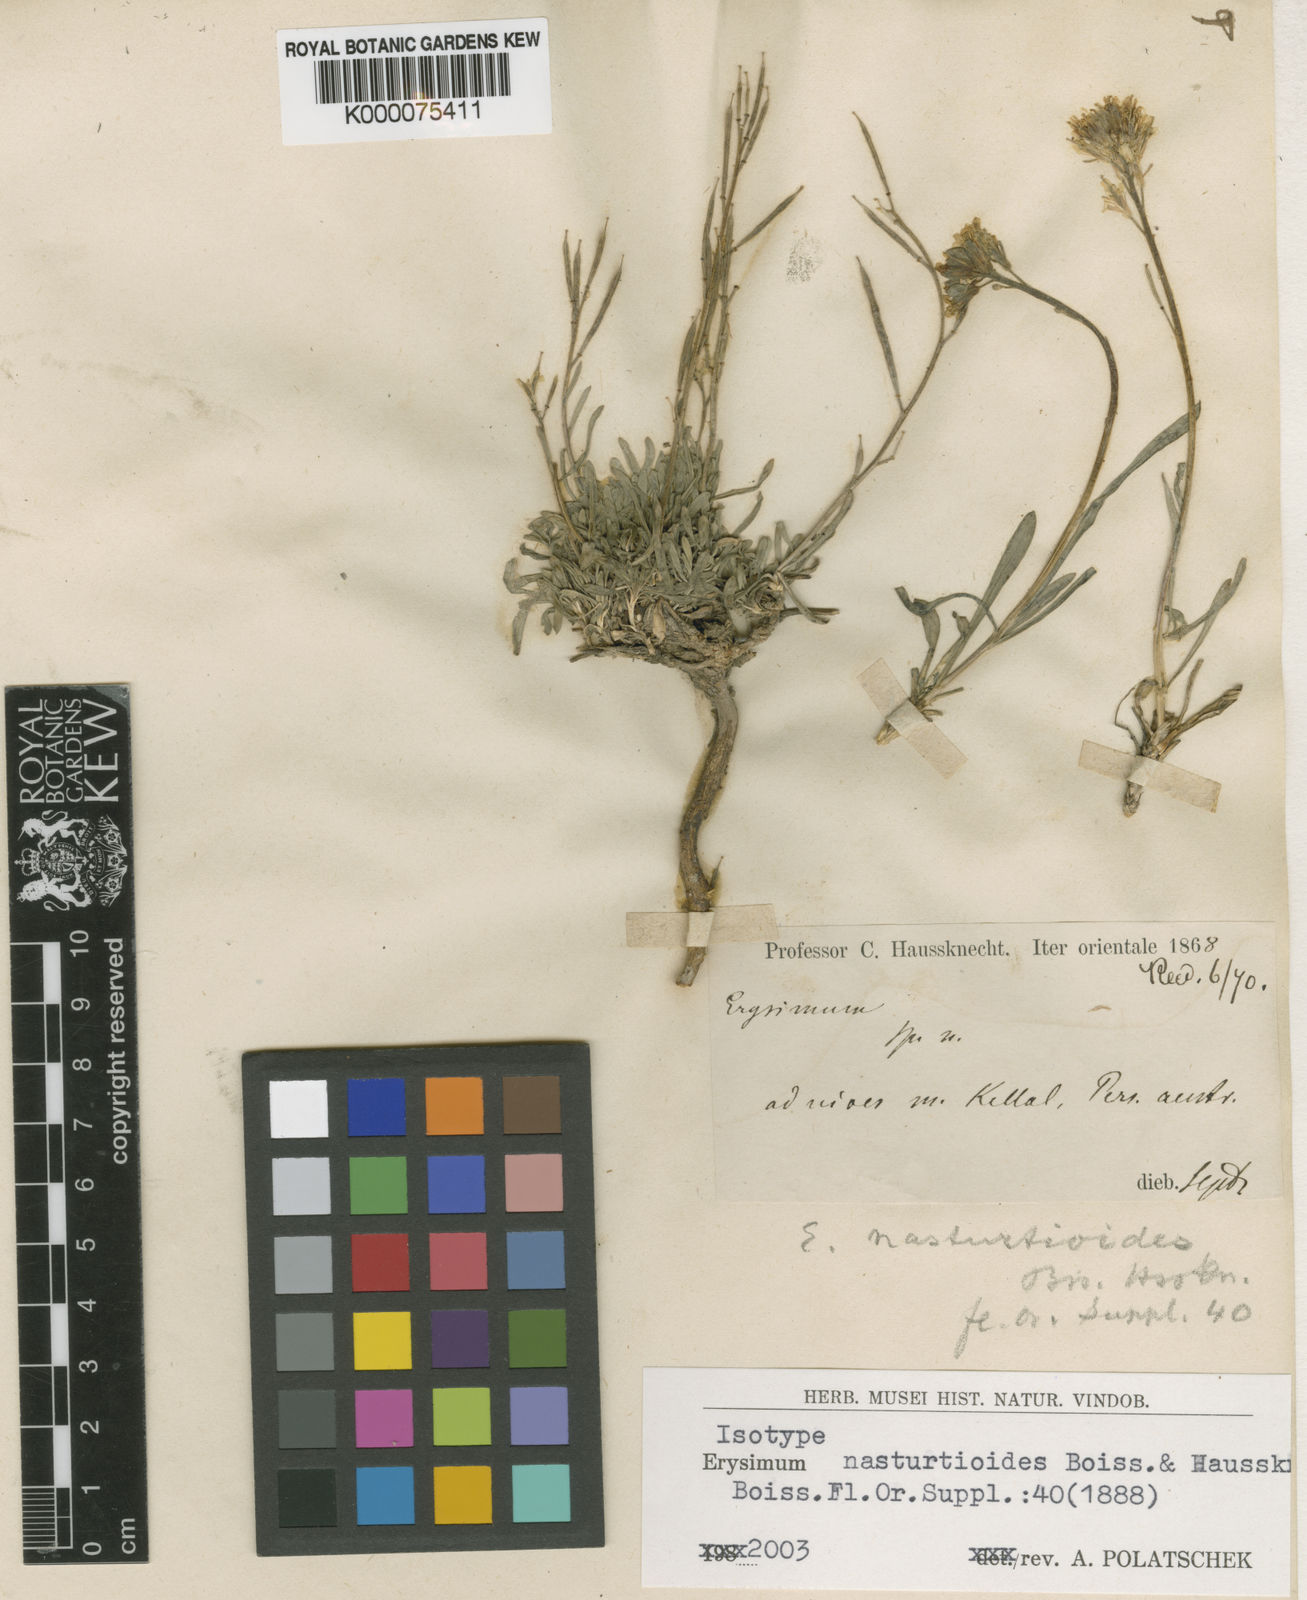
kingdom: Plantae
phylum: Tracheophyta
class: Magnoliopsida
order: Brassicales
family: Brassicaceae
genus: Erysimum
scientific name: Erysimum nasturtioides
